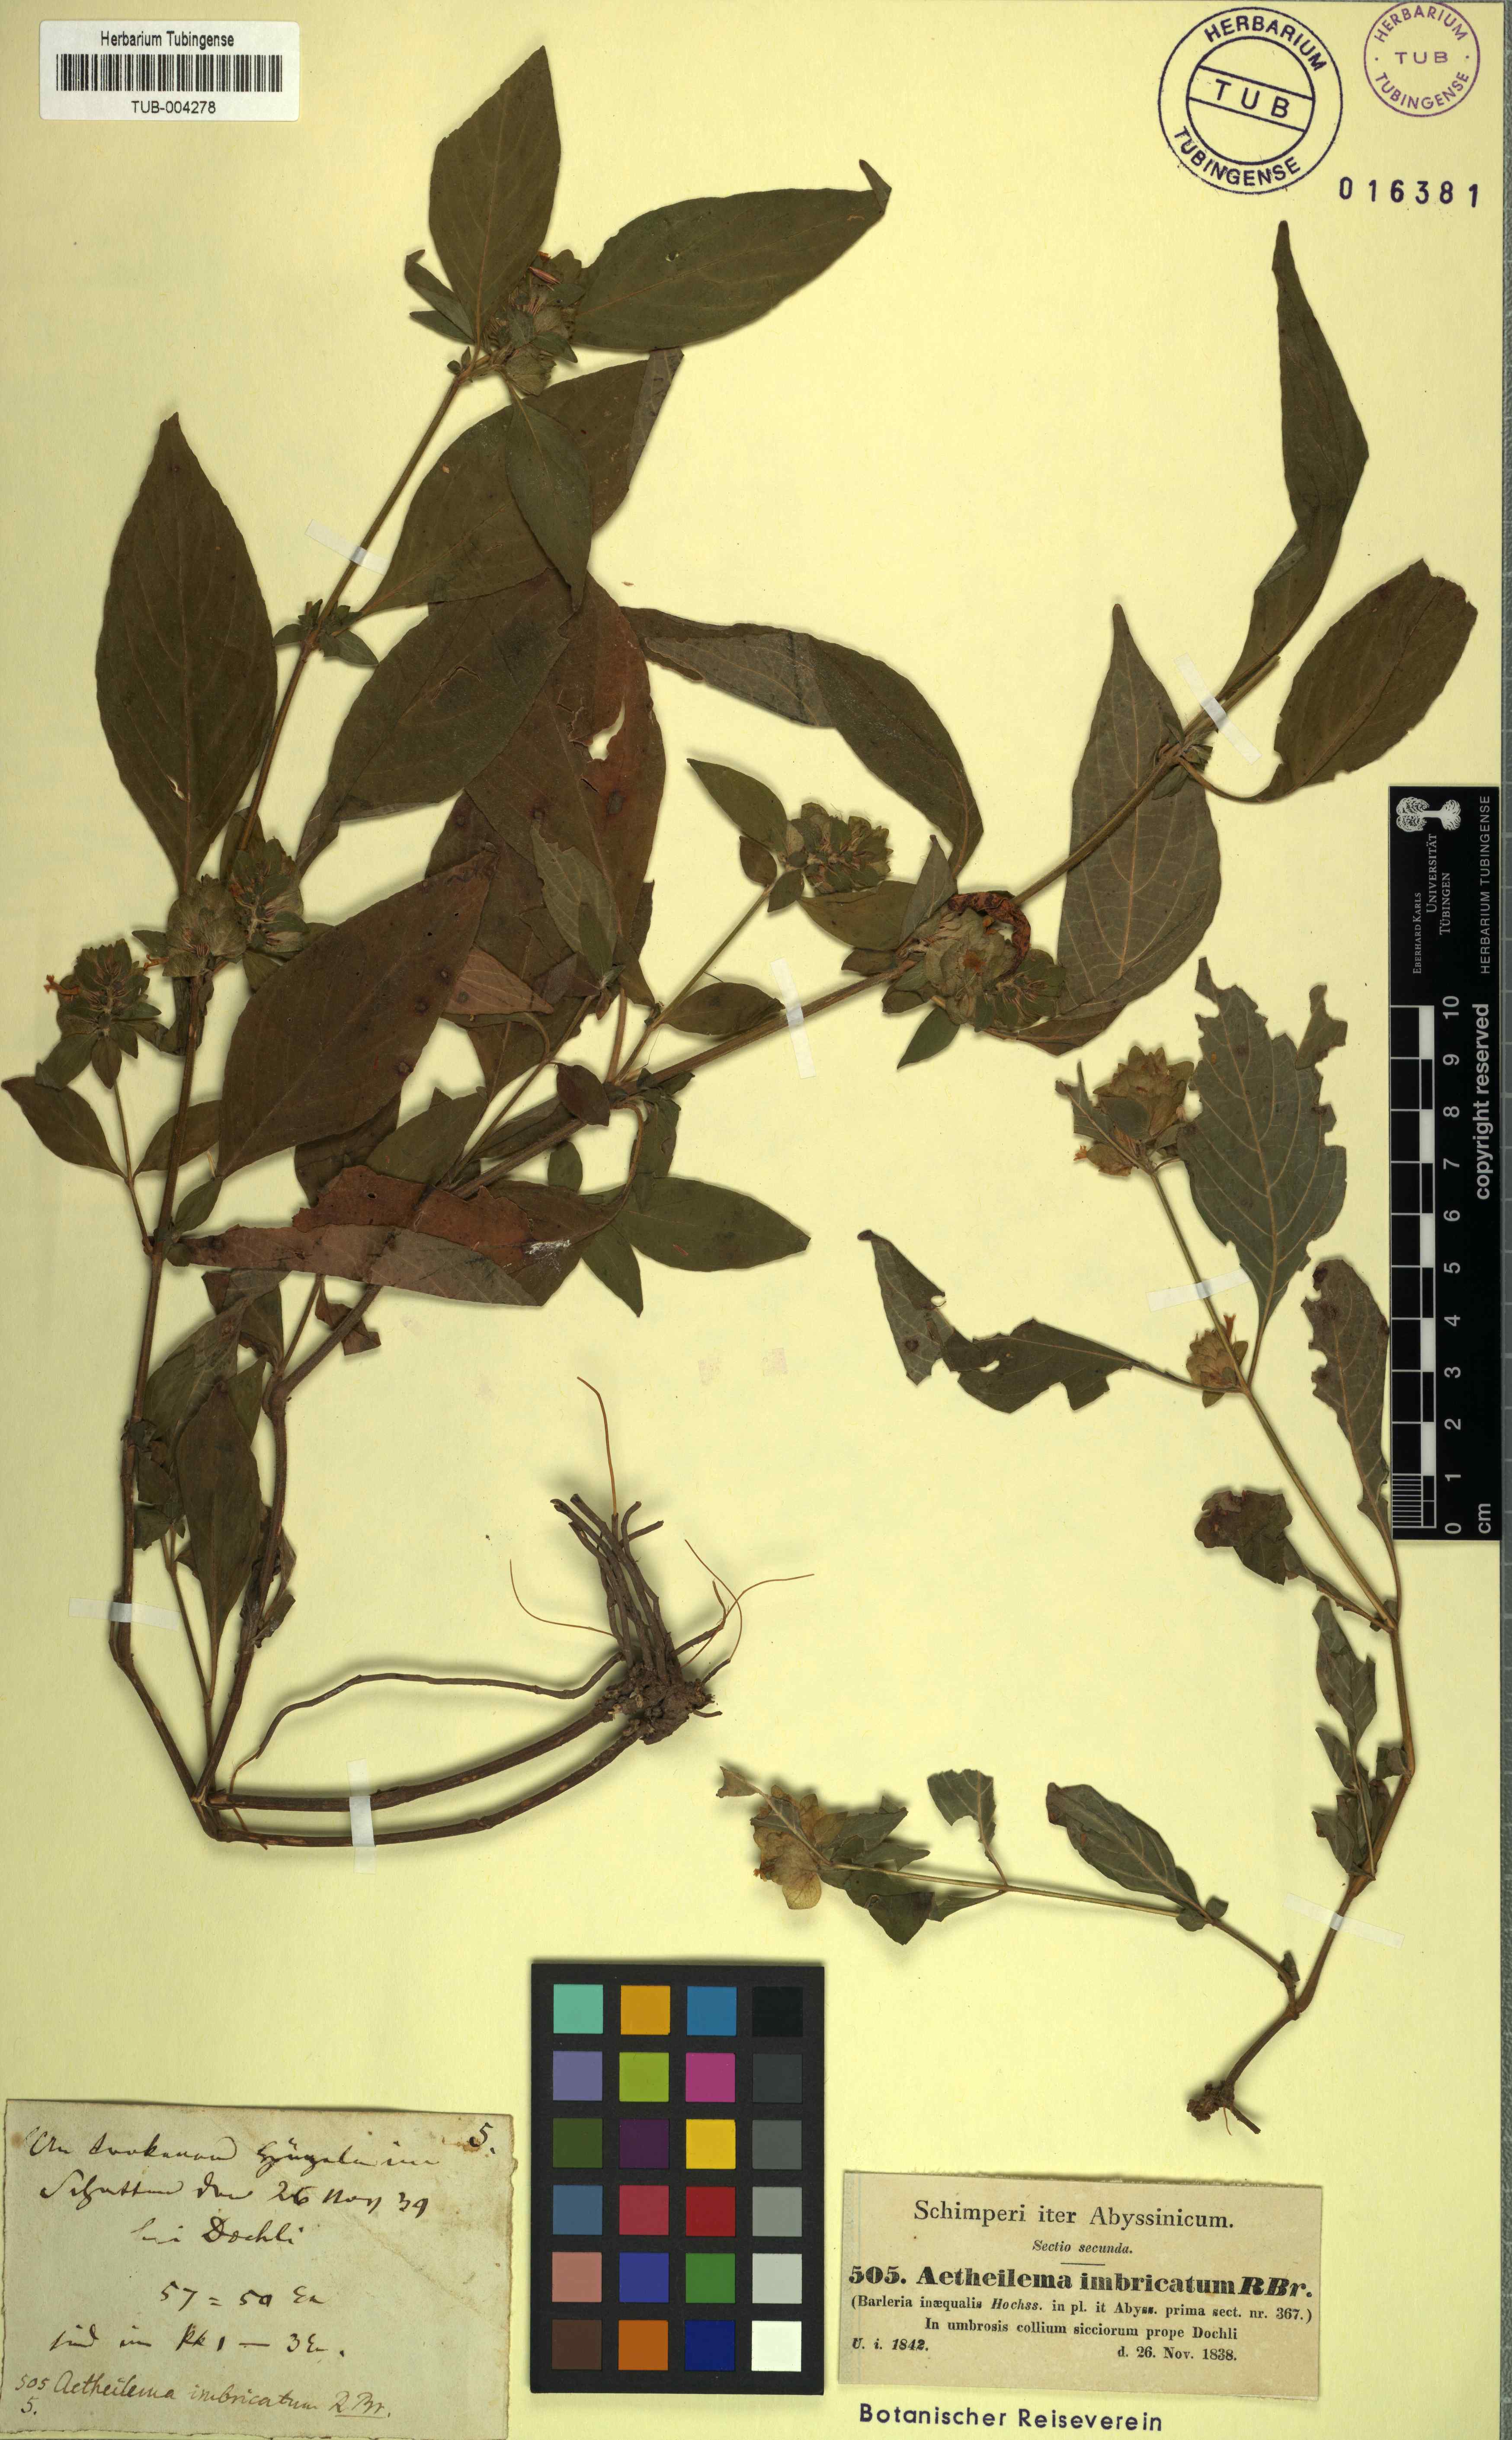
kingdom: Plantae
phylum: Tracheophyta
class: Magnoliopsida
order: Lamiales
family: Acanthaceae
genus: Phaulopsis
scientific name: Phaulopsis barteri
